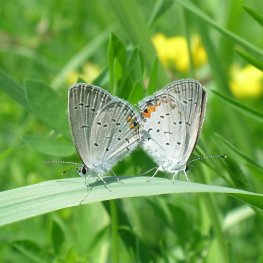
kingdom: Animalia
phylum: Arthropoda
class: Insecta
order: Lepidoptera
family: Lycaenidae
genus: Elkalyce
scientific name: Elkalyce comyntas
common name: Eastern Tailed-Blue
